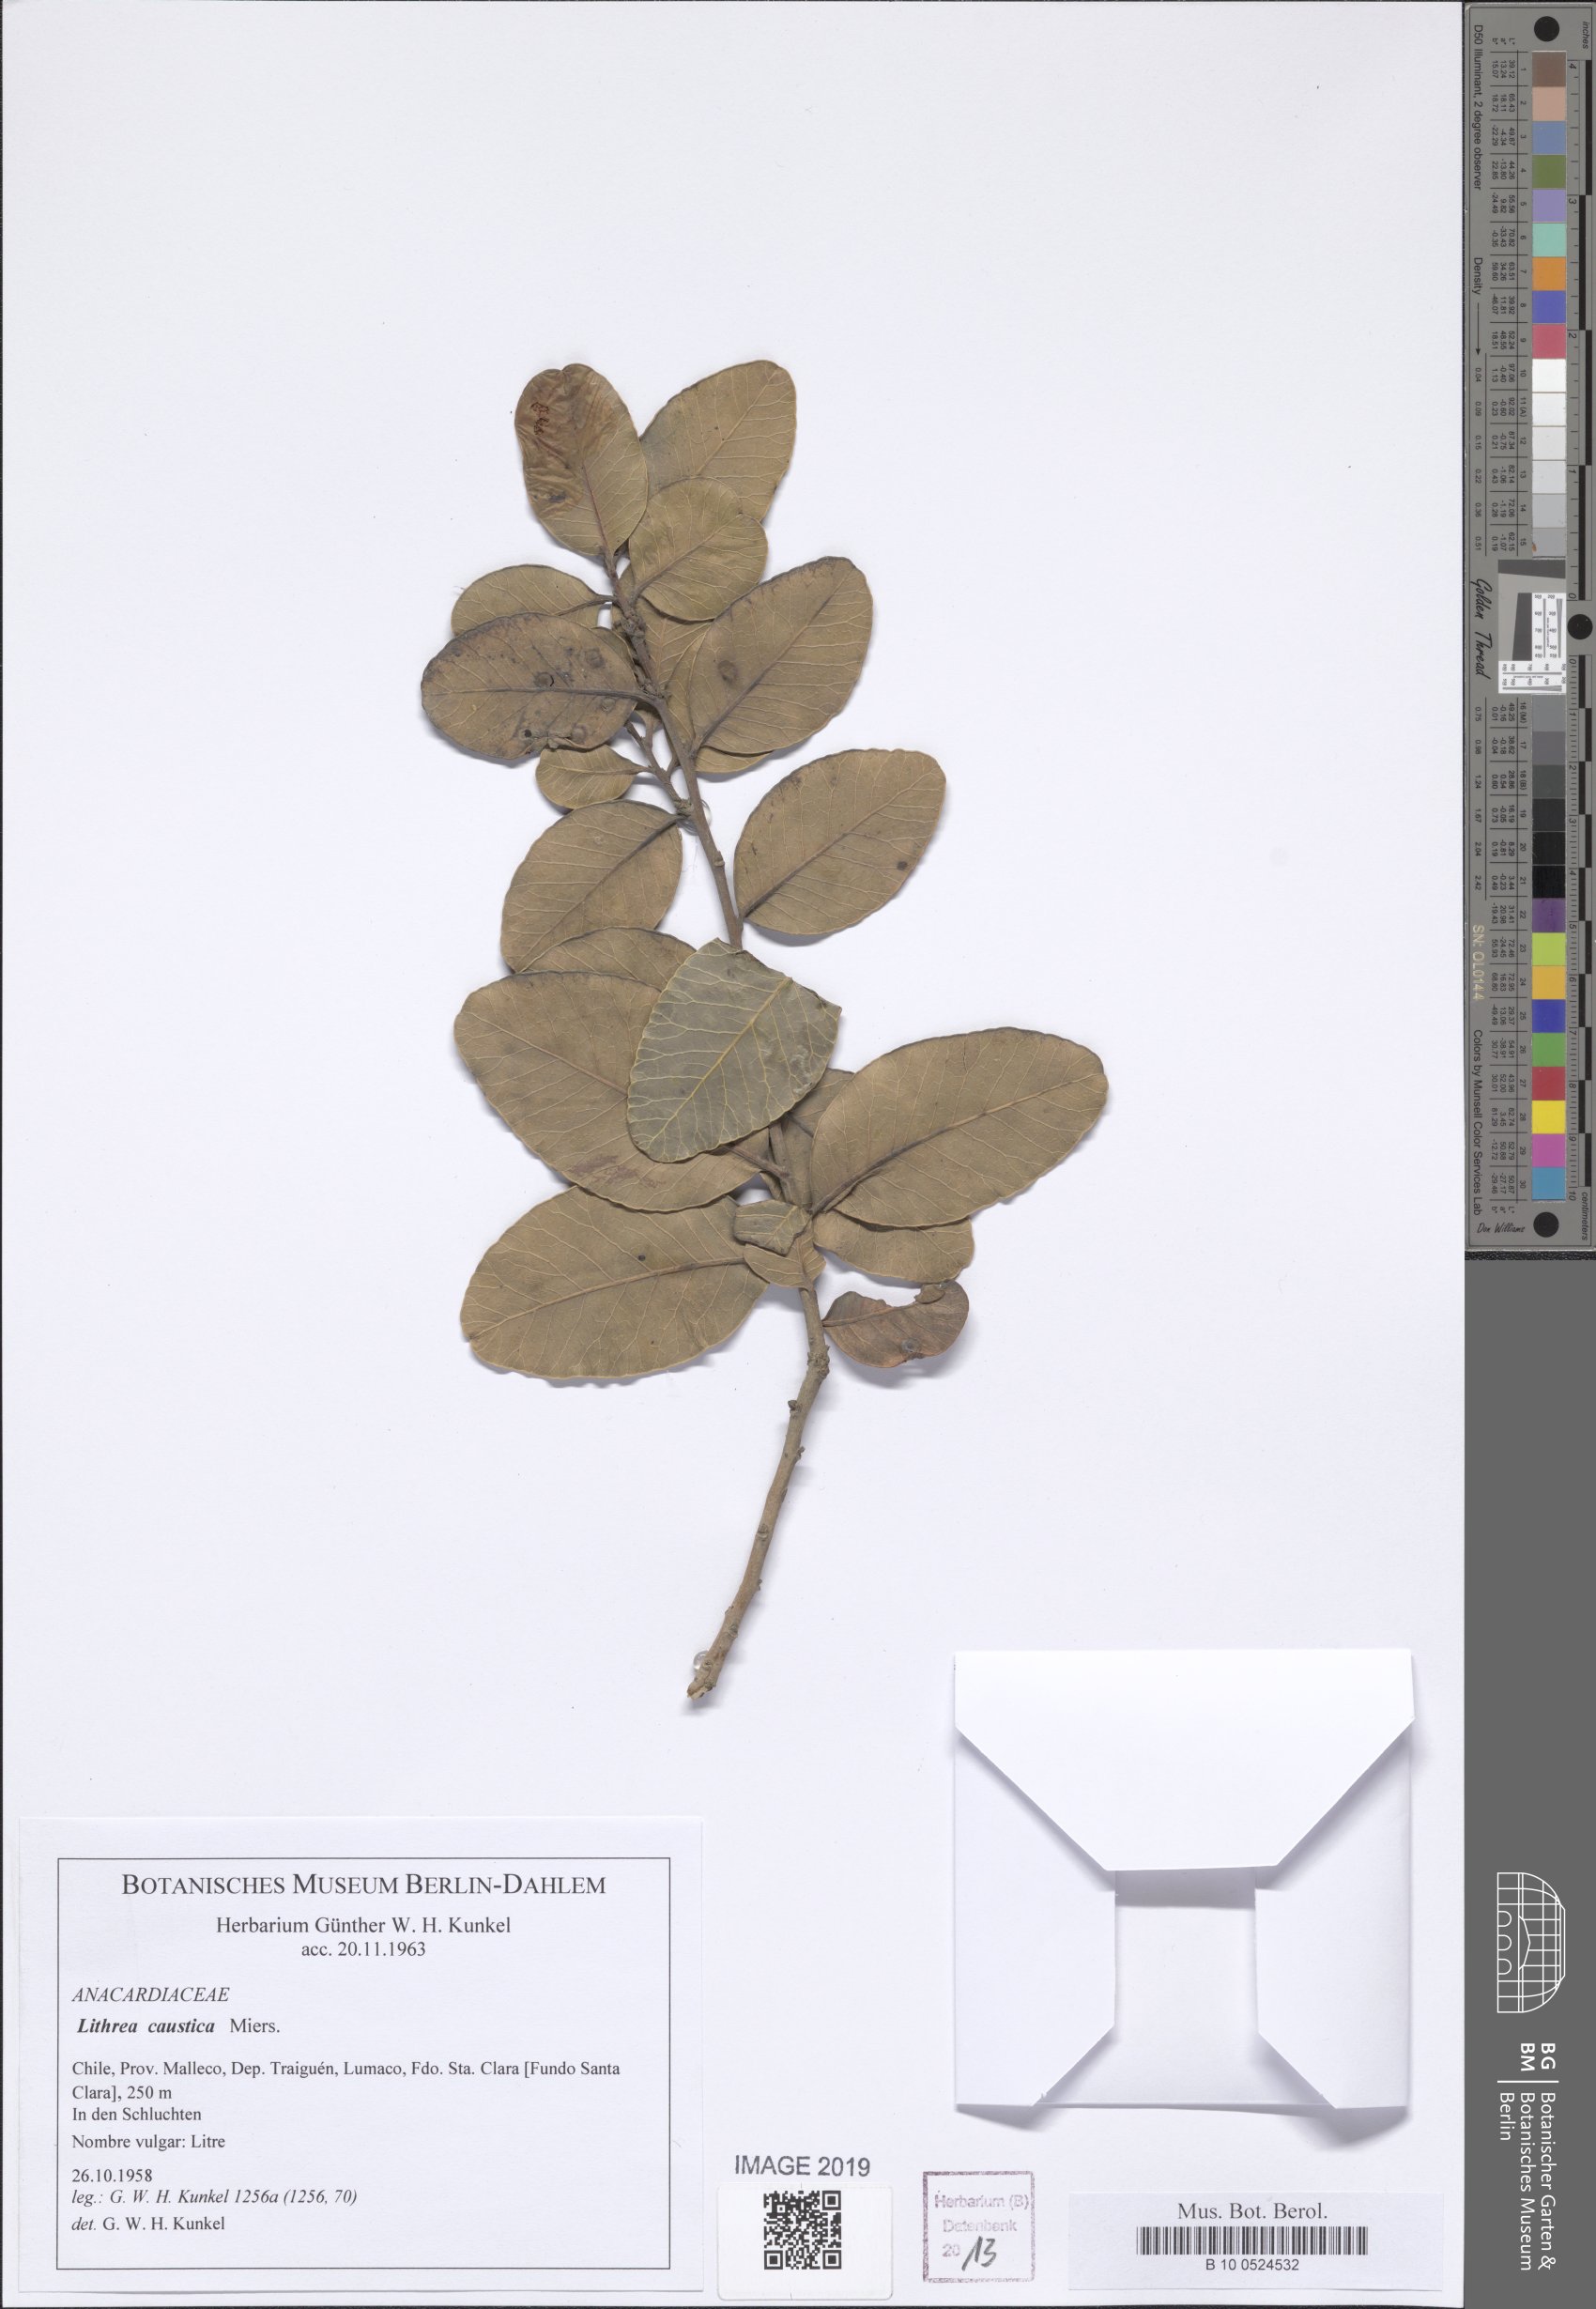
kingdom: Plantae
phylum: Tracheophyta
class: Magnoliopsida
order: Sapindales
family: Anacardiaceae
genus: Lithraea
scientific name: Lithraea Lithrea caustica
